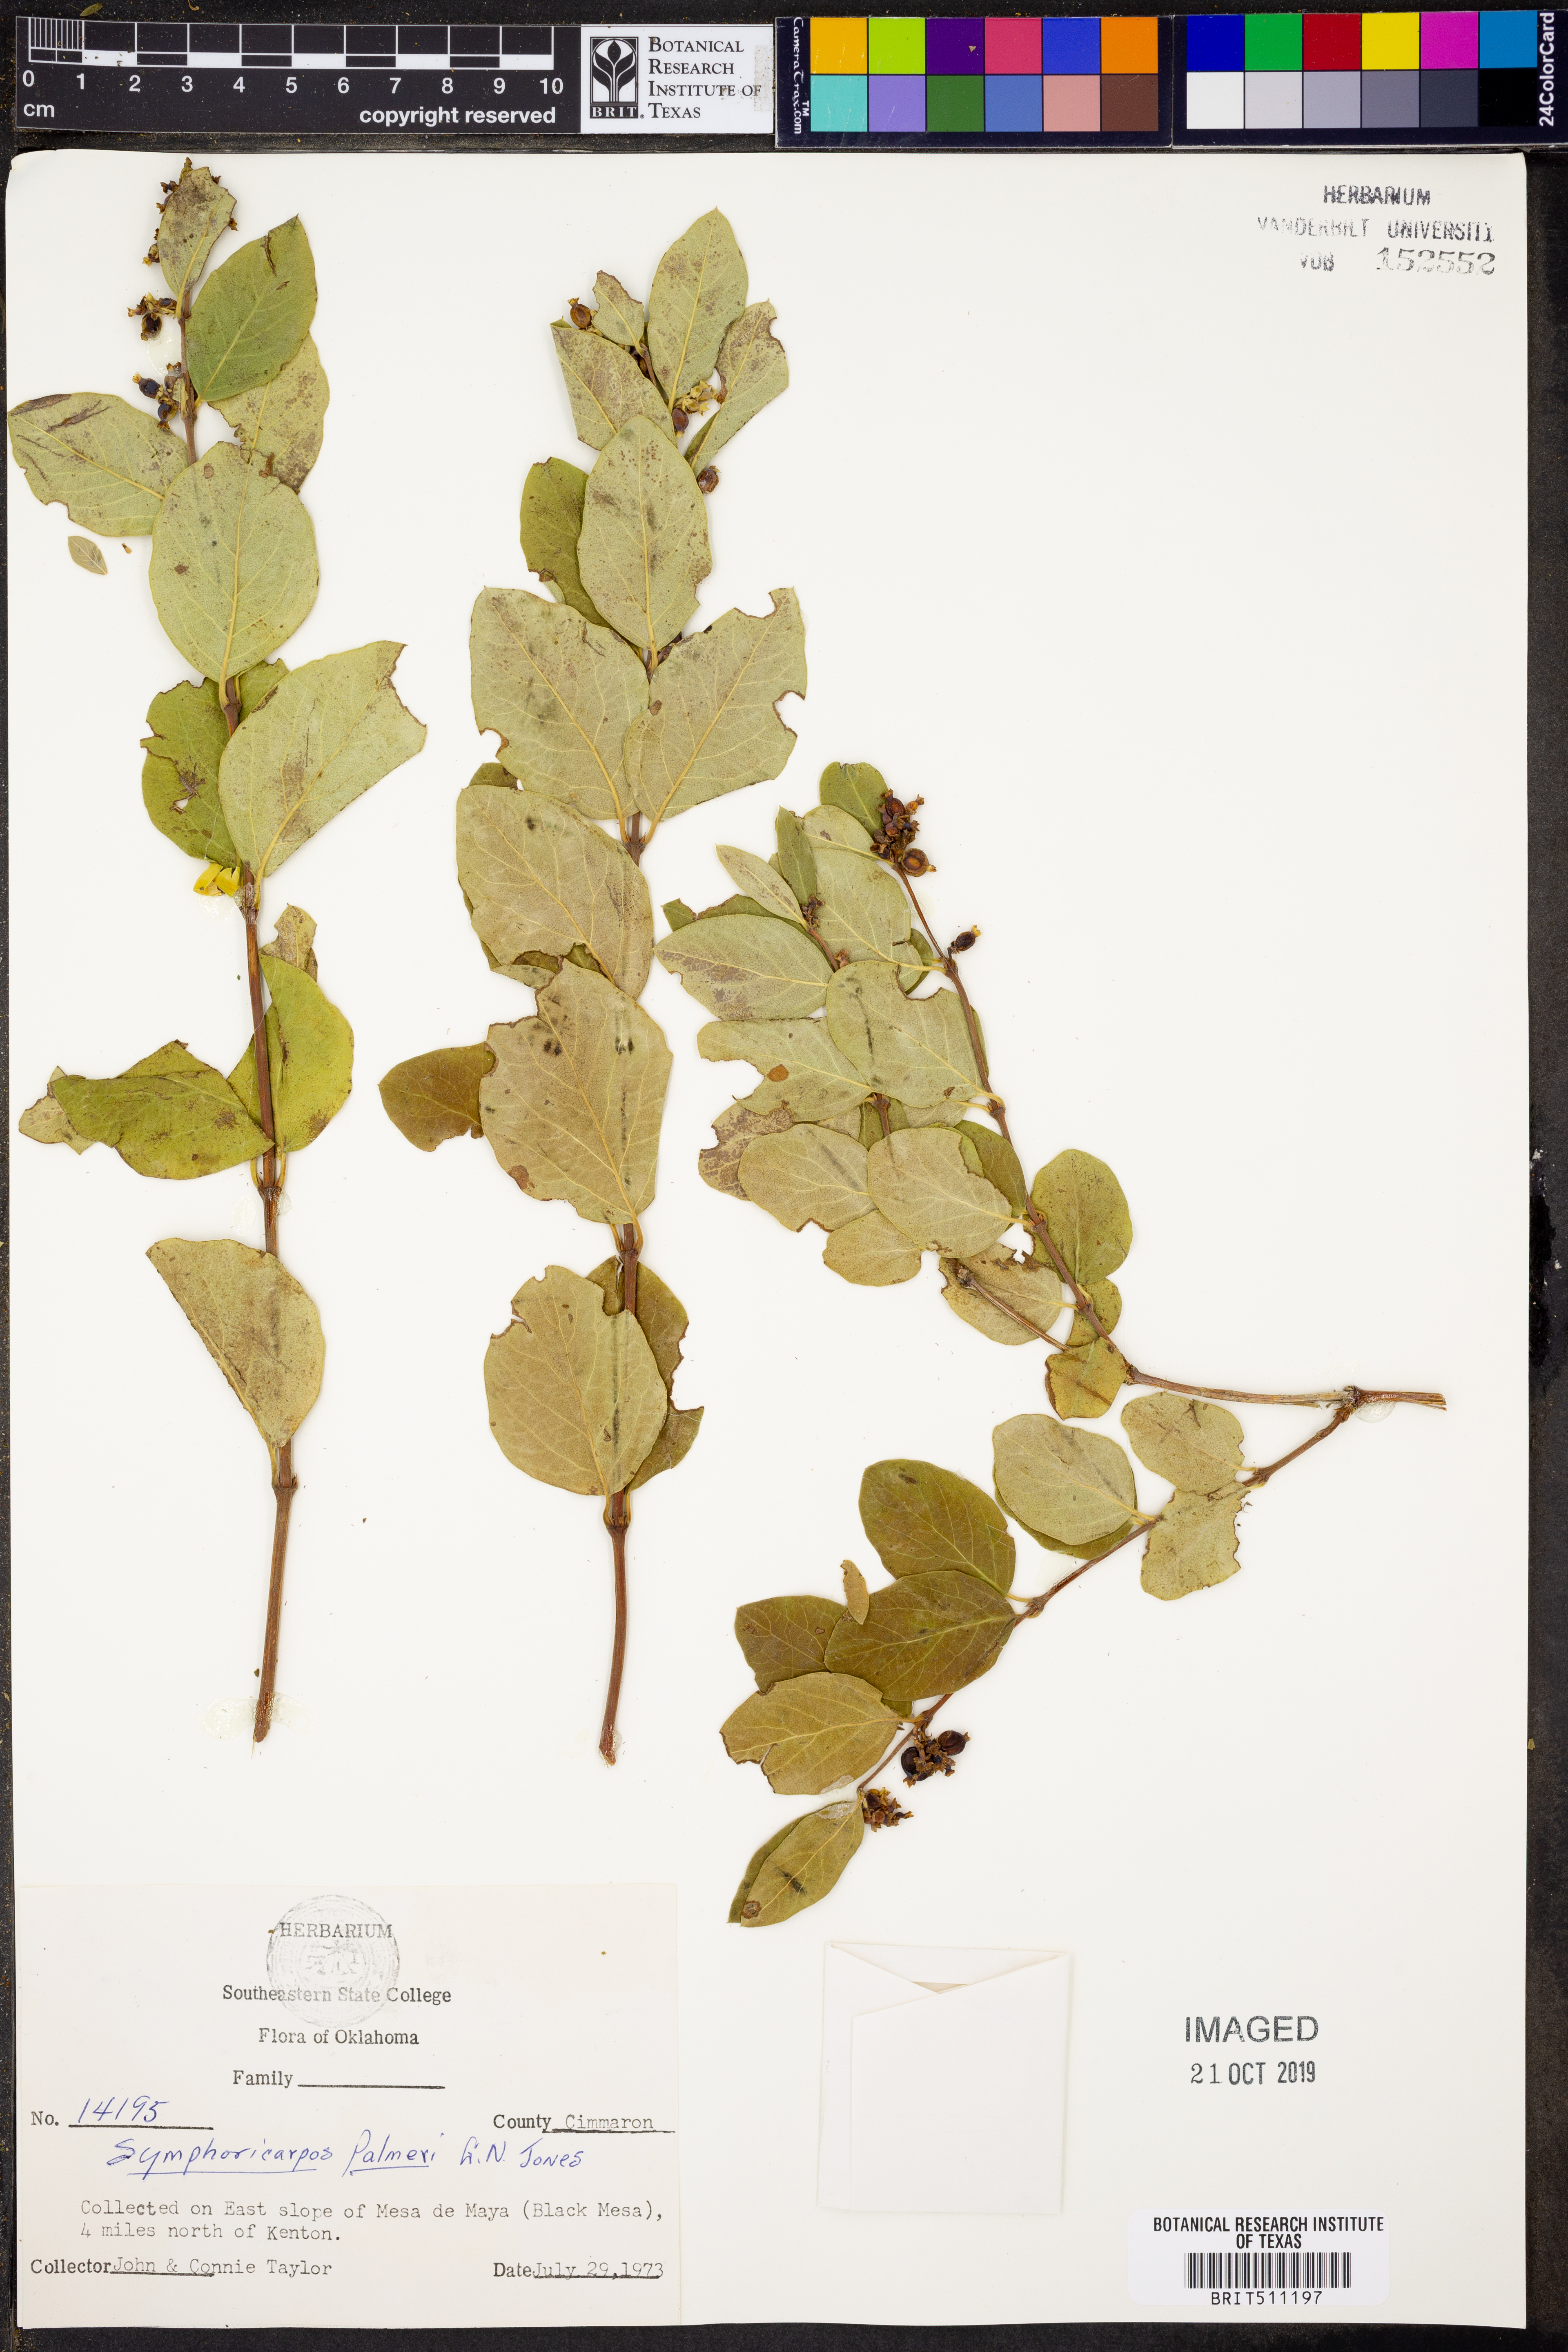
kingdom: Plantae
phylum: Tracheophyta
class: Magnoliopsida
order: Dipsacales
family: Caprifoliaceae
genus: Symphoricarpos
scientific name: Symphoricarpos palmeri
